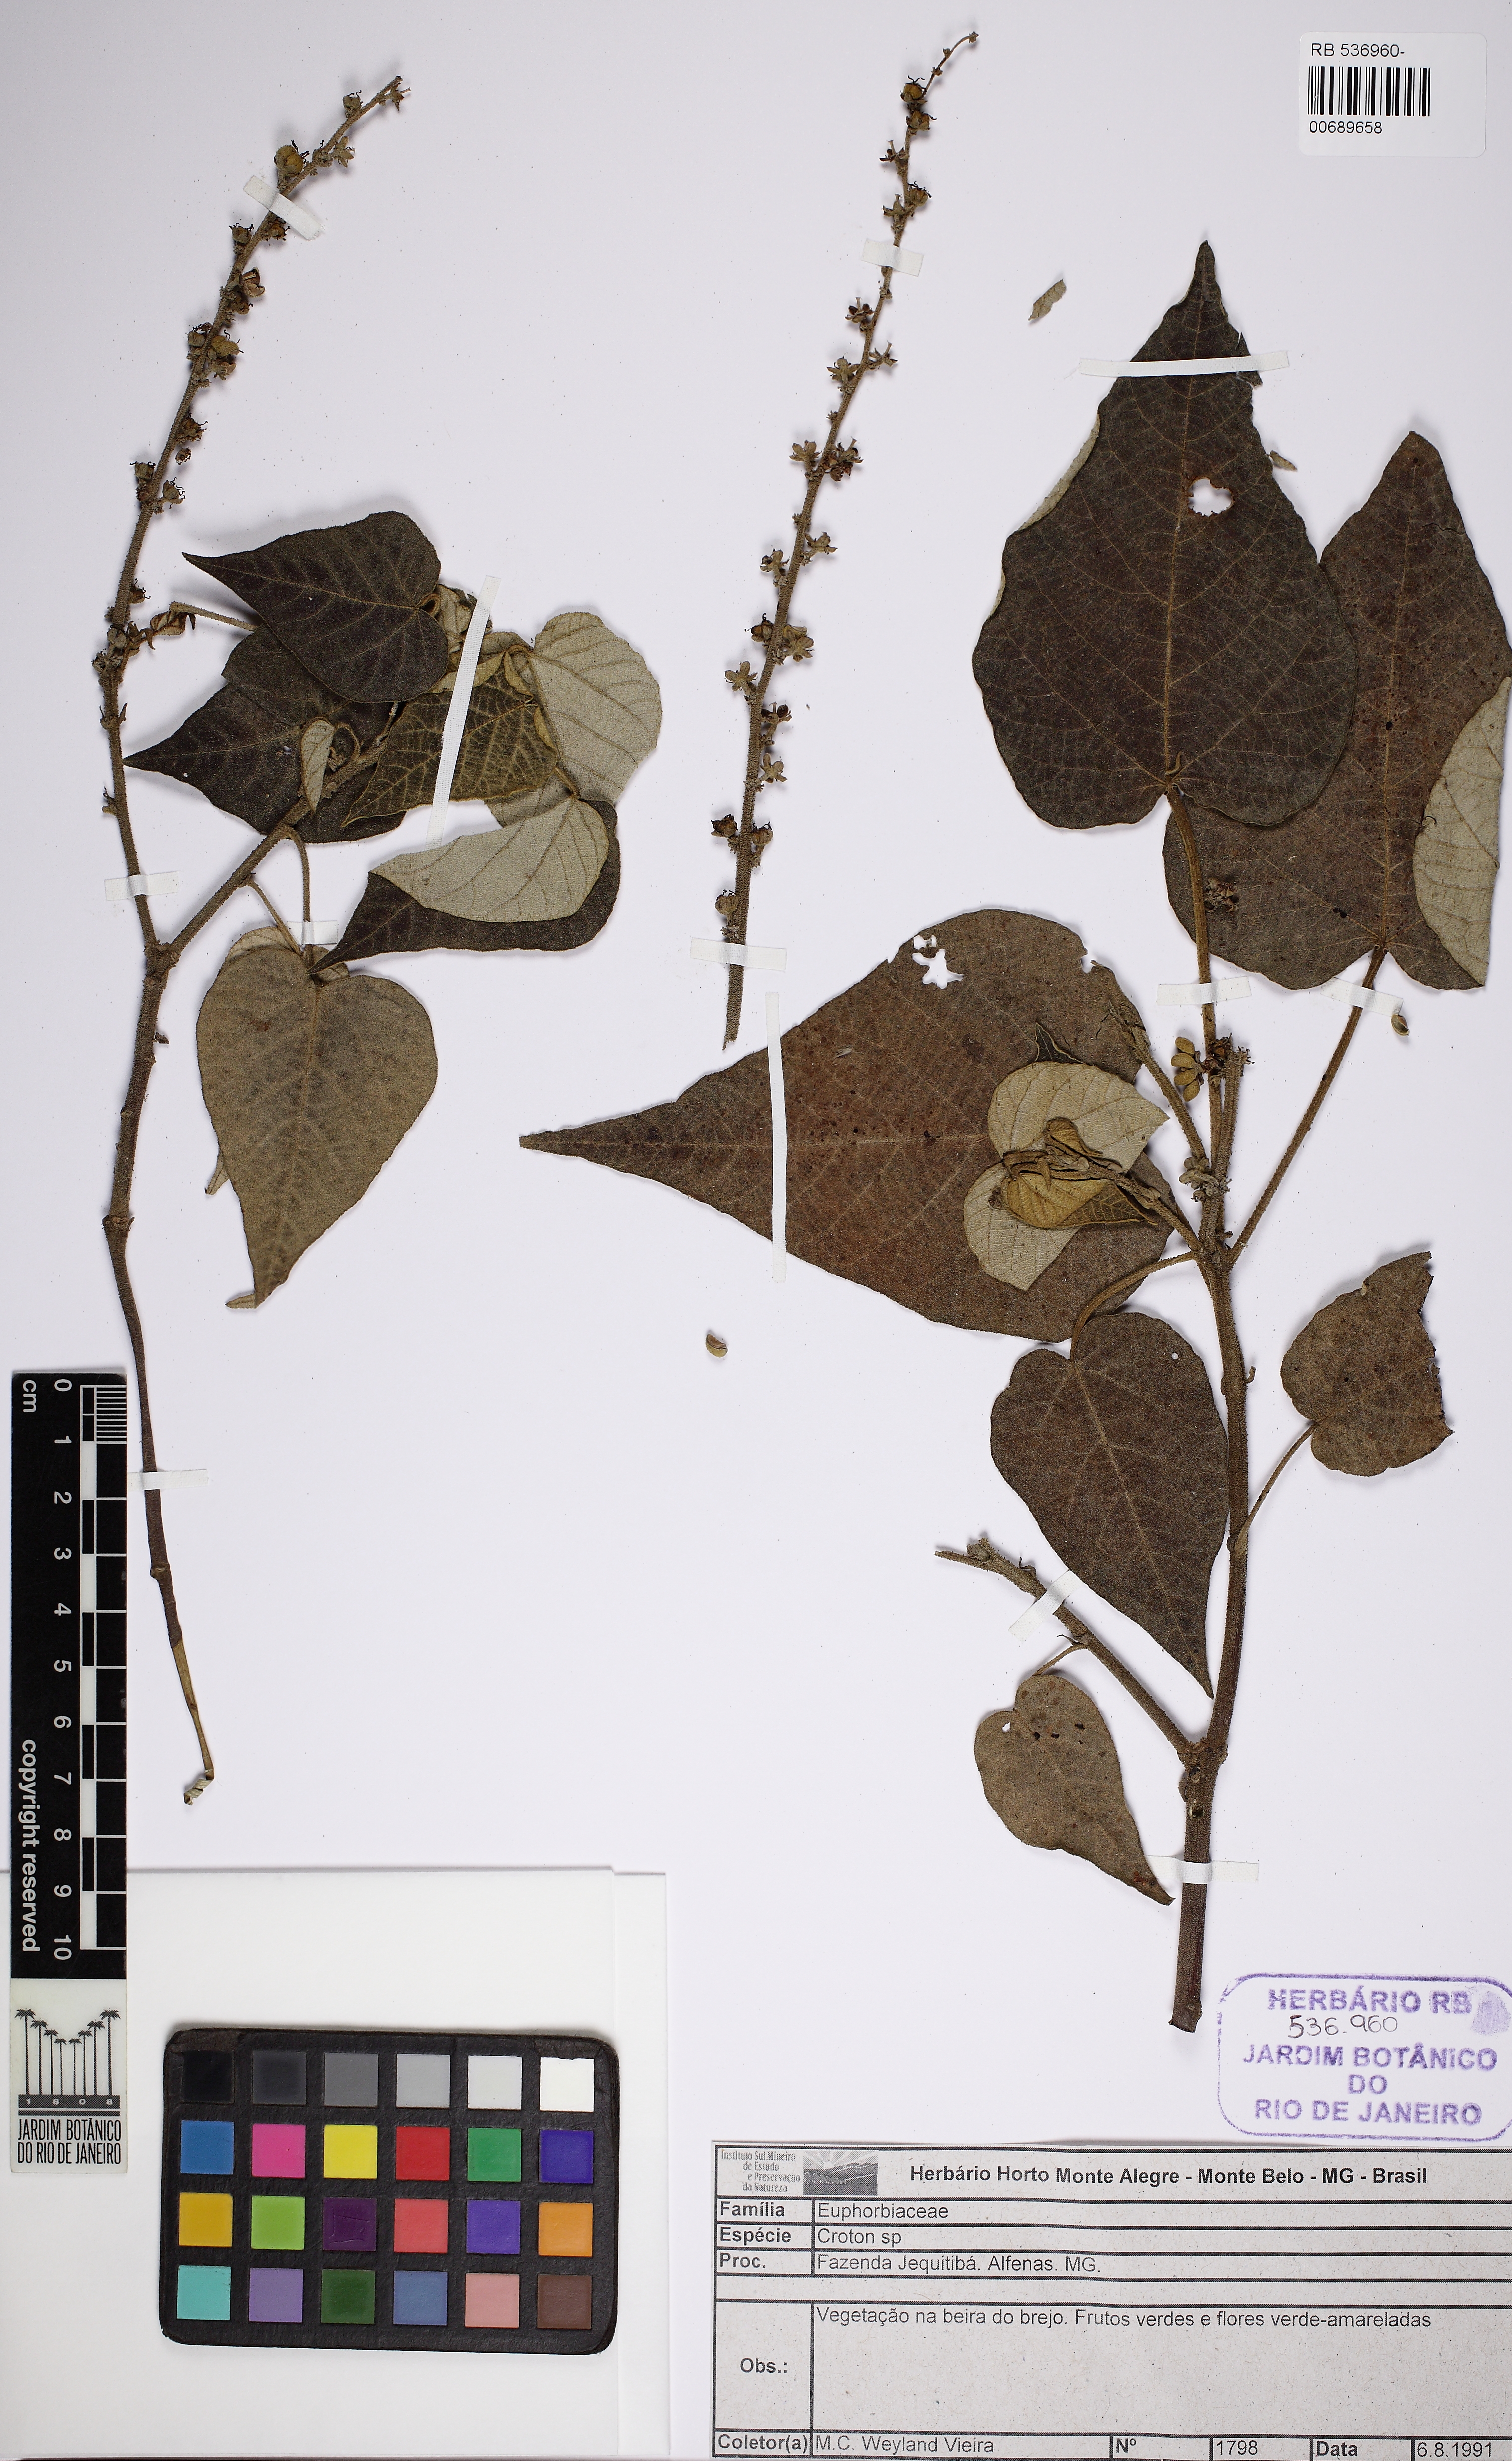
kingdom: Plantae
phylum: Tracheophyta
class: Magnoliopsida
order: Malpighiales
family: Euphorbiaceae
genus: Croton
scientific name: Croton urucurana
